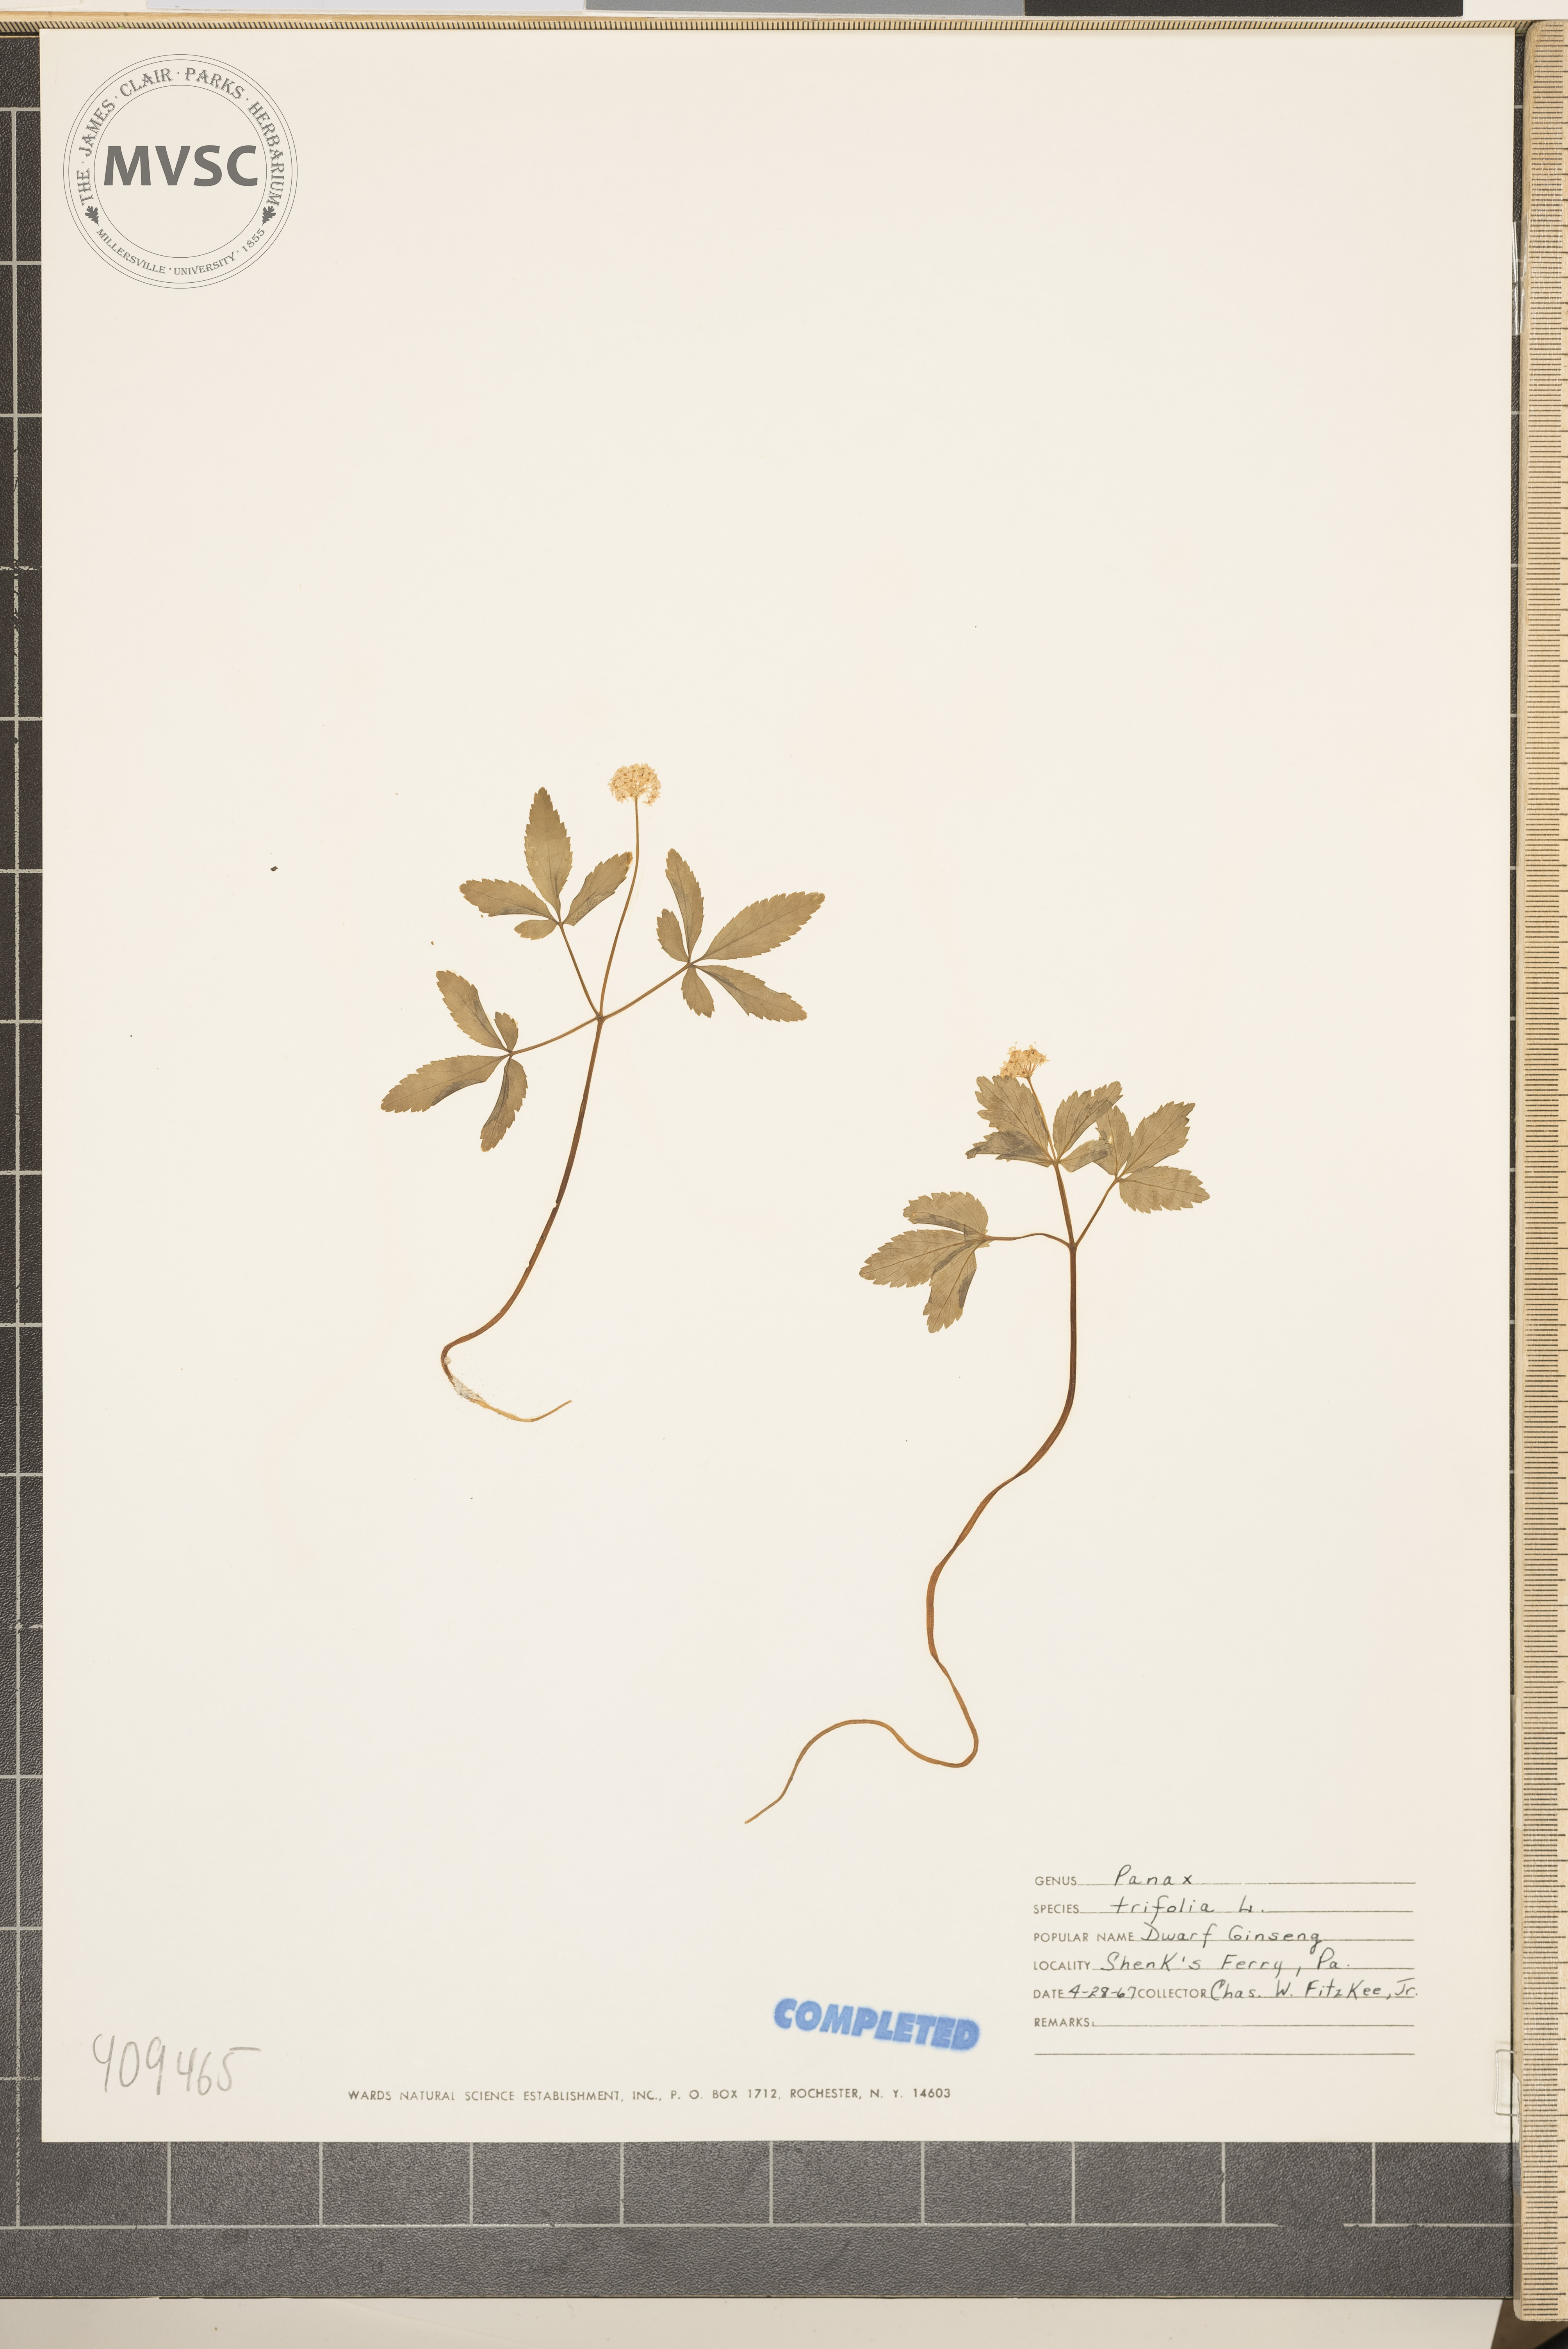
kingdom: Plantae
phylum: Tracheophyta
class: Magnoliopsida
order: Apiales
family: Araliaceae
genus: Panax
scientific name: Panax trifolius
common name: Dwarf ginseng
